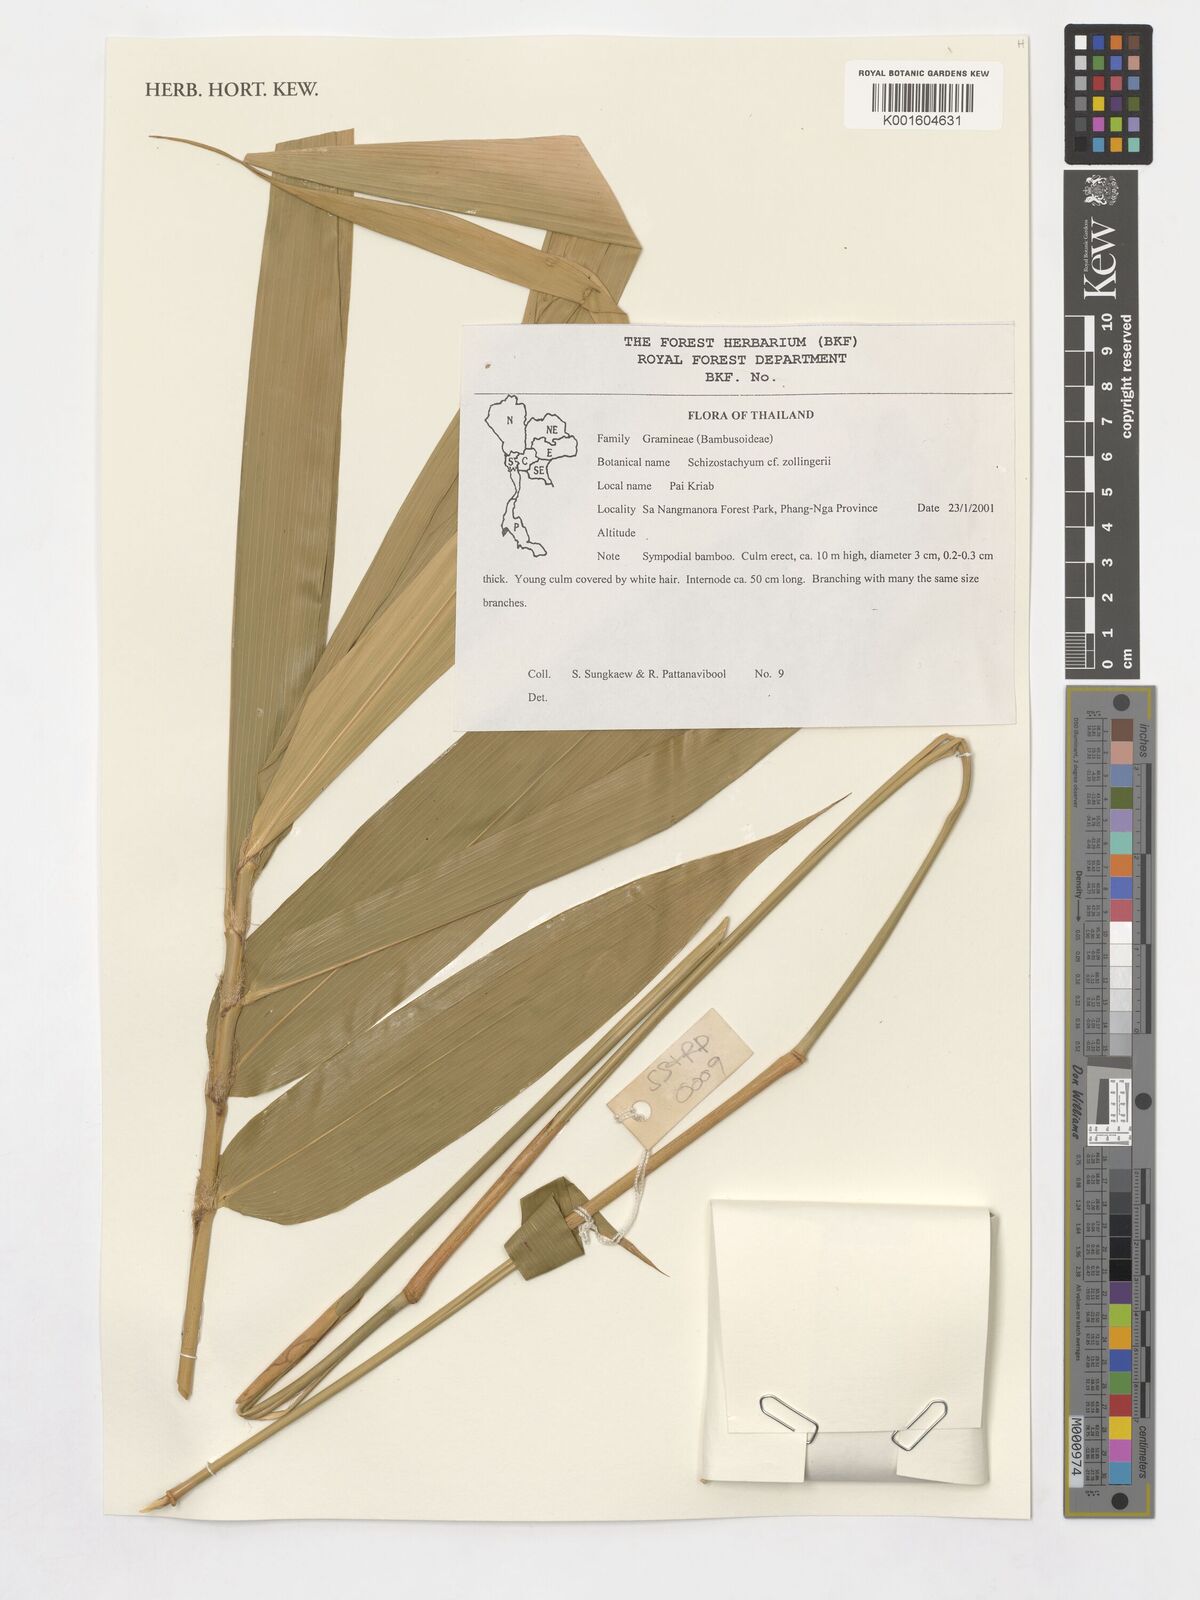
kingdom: Plantae
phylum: Tracheophyta
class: Liliopsida
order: Poales
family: Poaceae
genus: Schizostachyum
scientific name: Schizostachyum zollingeri
